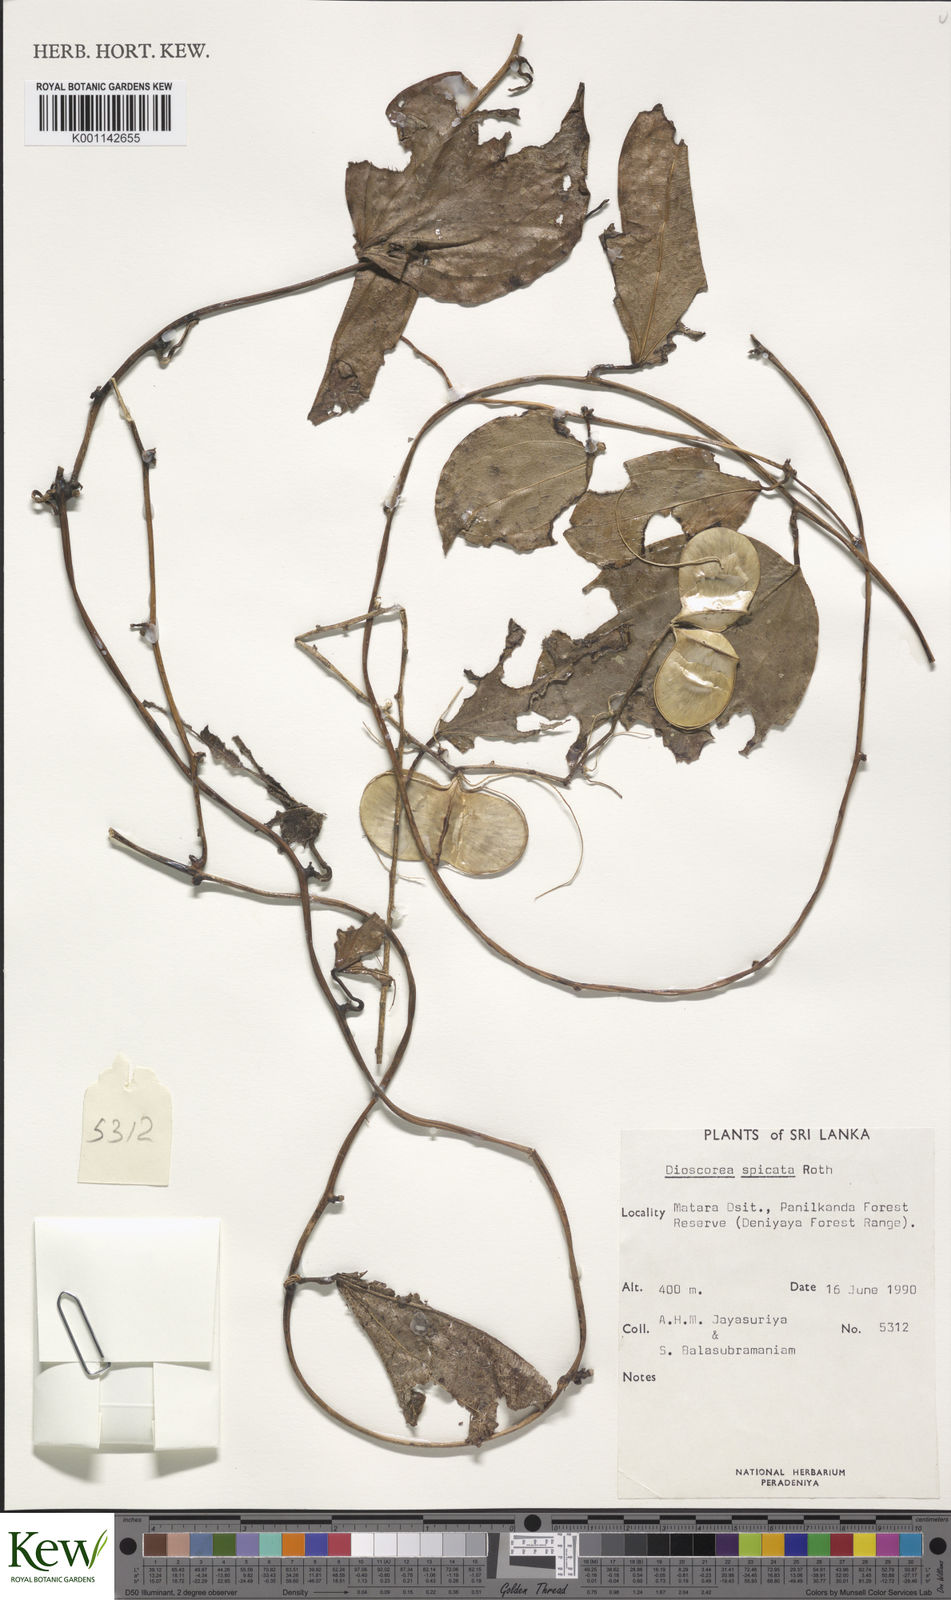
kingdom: Plantae
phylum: Tracheophyta
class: Liliopsida
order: Dioscoreales
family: Dioscoreaceae
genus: Dioscorea
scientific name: Dioscorea spicata
